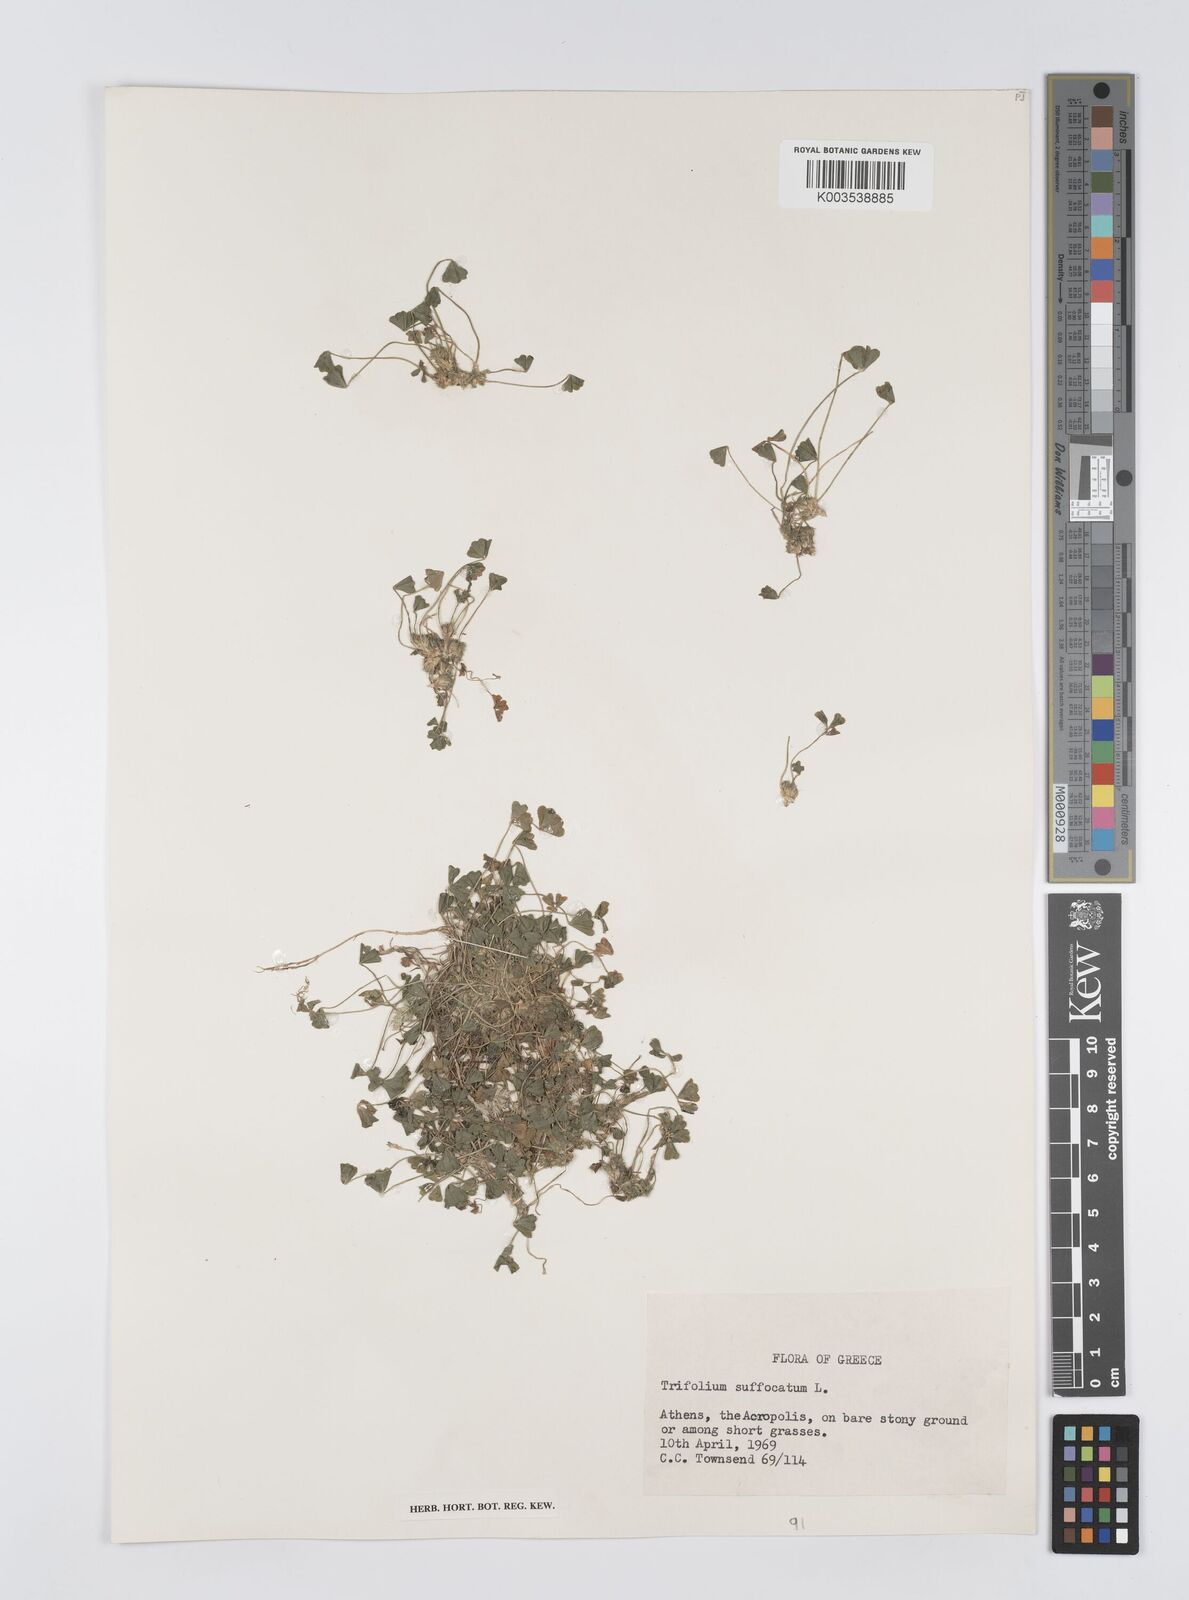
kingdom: Plantae
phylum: Tracheophyta
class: Magnoliopsida
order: Fabales
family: Fabaceae
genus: Trifolium
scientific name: Trifolium suffocatum
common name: Suffocated clover
